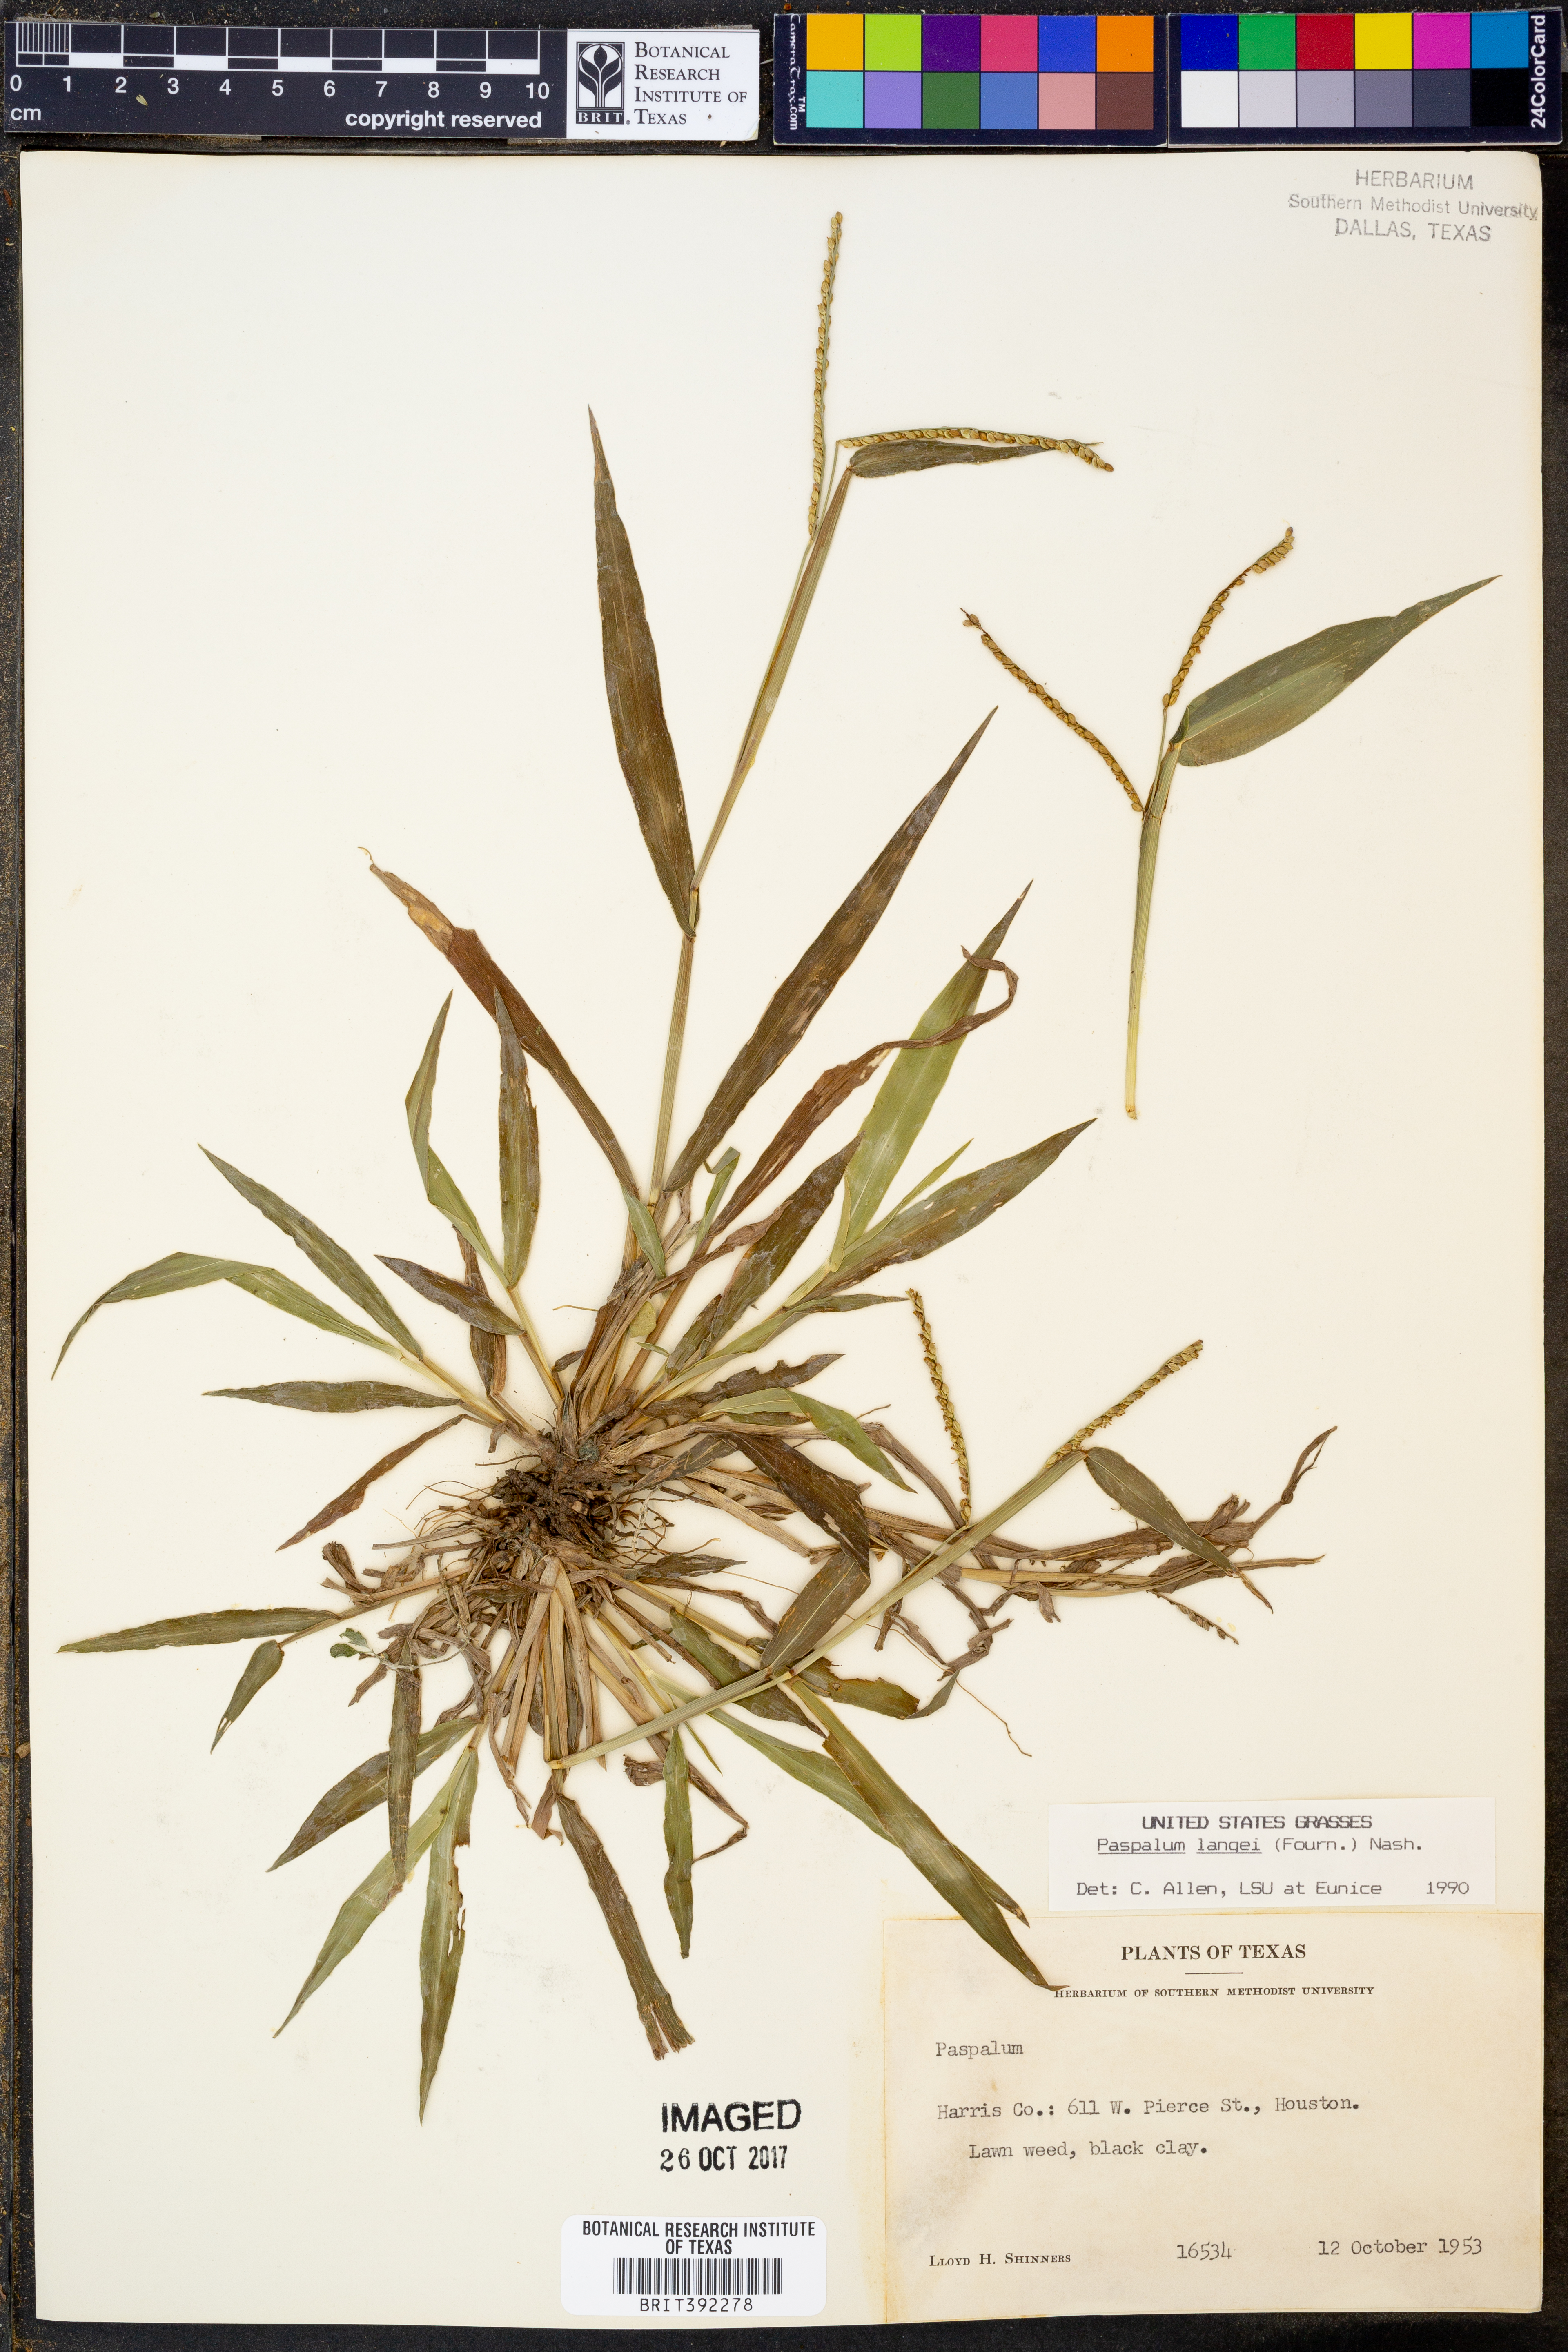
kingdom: Plantae
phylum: Tracheophyta
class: Liliopsida
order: Poales
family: Poaceae
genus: Paspalum
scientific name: Paspalum langei
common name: Rusty-seed paspalum
